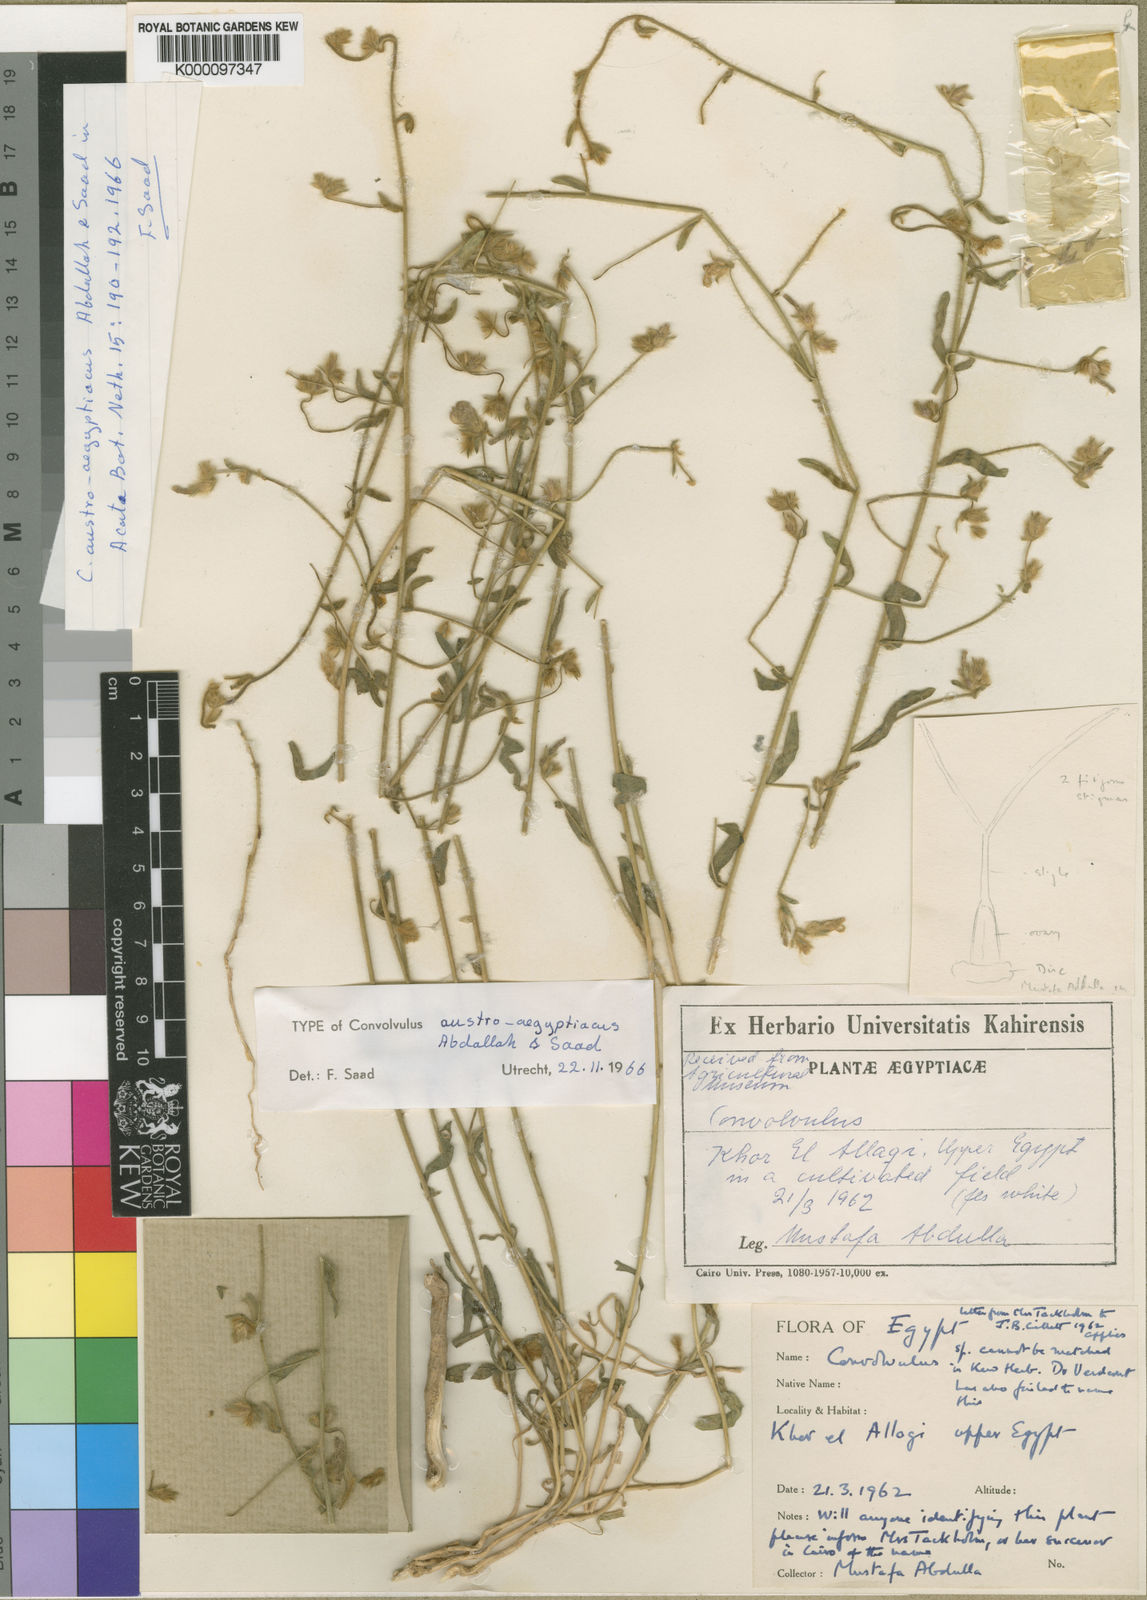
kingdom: Plantae
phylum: Tracheophyta
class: Magnoliopsida
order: Solanales
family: Convolvulaceae
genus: Convolvulus
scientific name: Convolvulus prostratus
